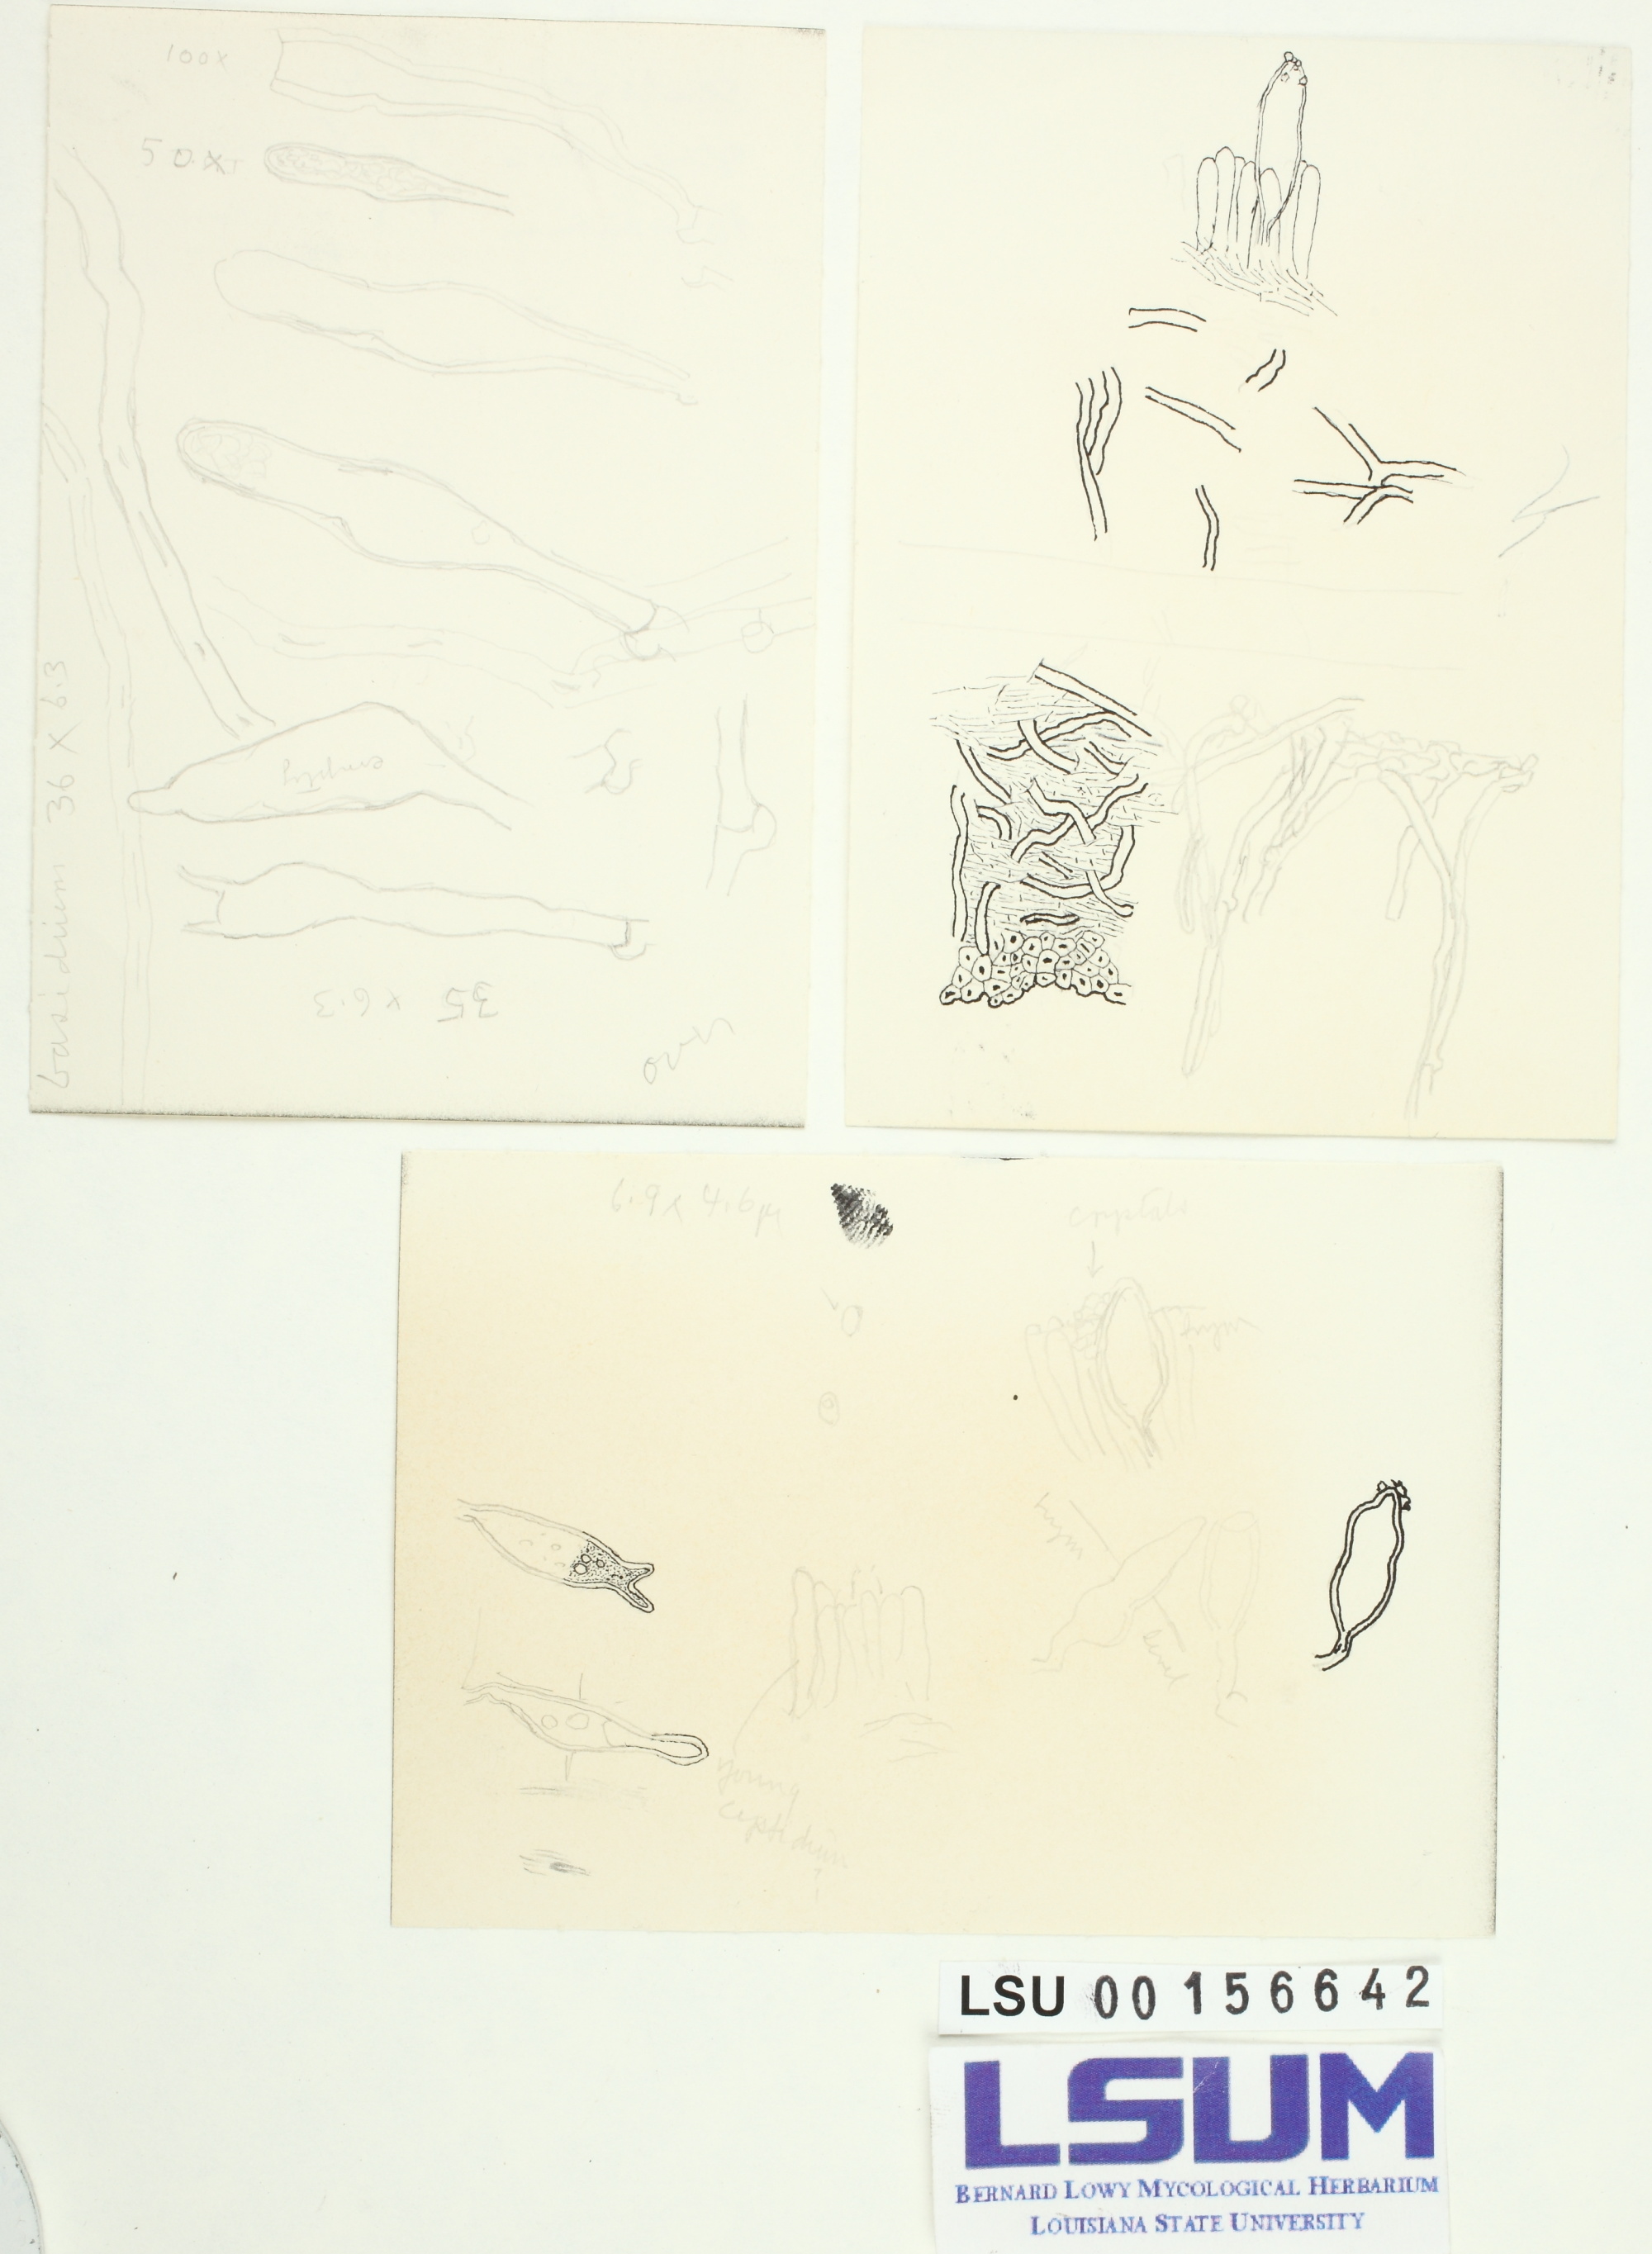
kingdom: Fungi
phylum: Basidiomycota
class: Agaricomycetes
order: Polyporales
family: Panaceae
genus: Cymatoderma
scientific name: Cymatoderma elegans
